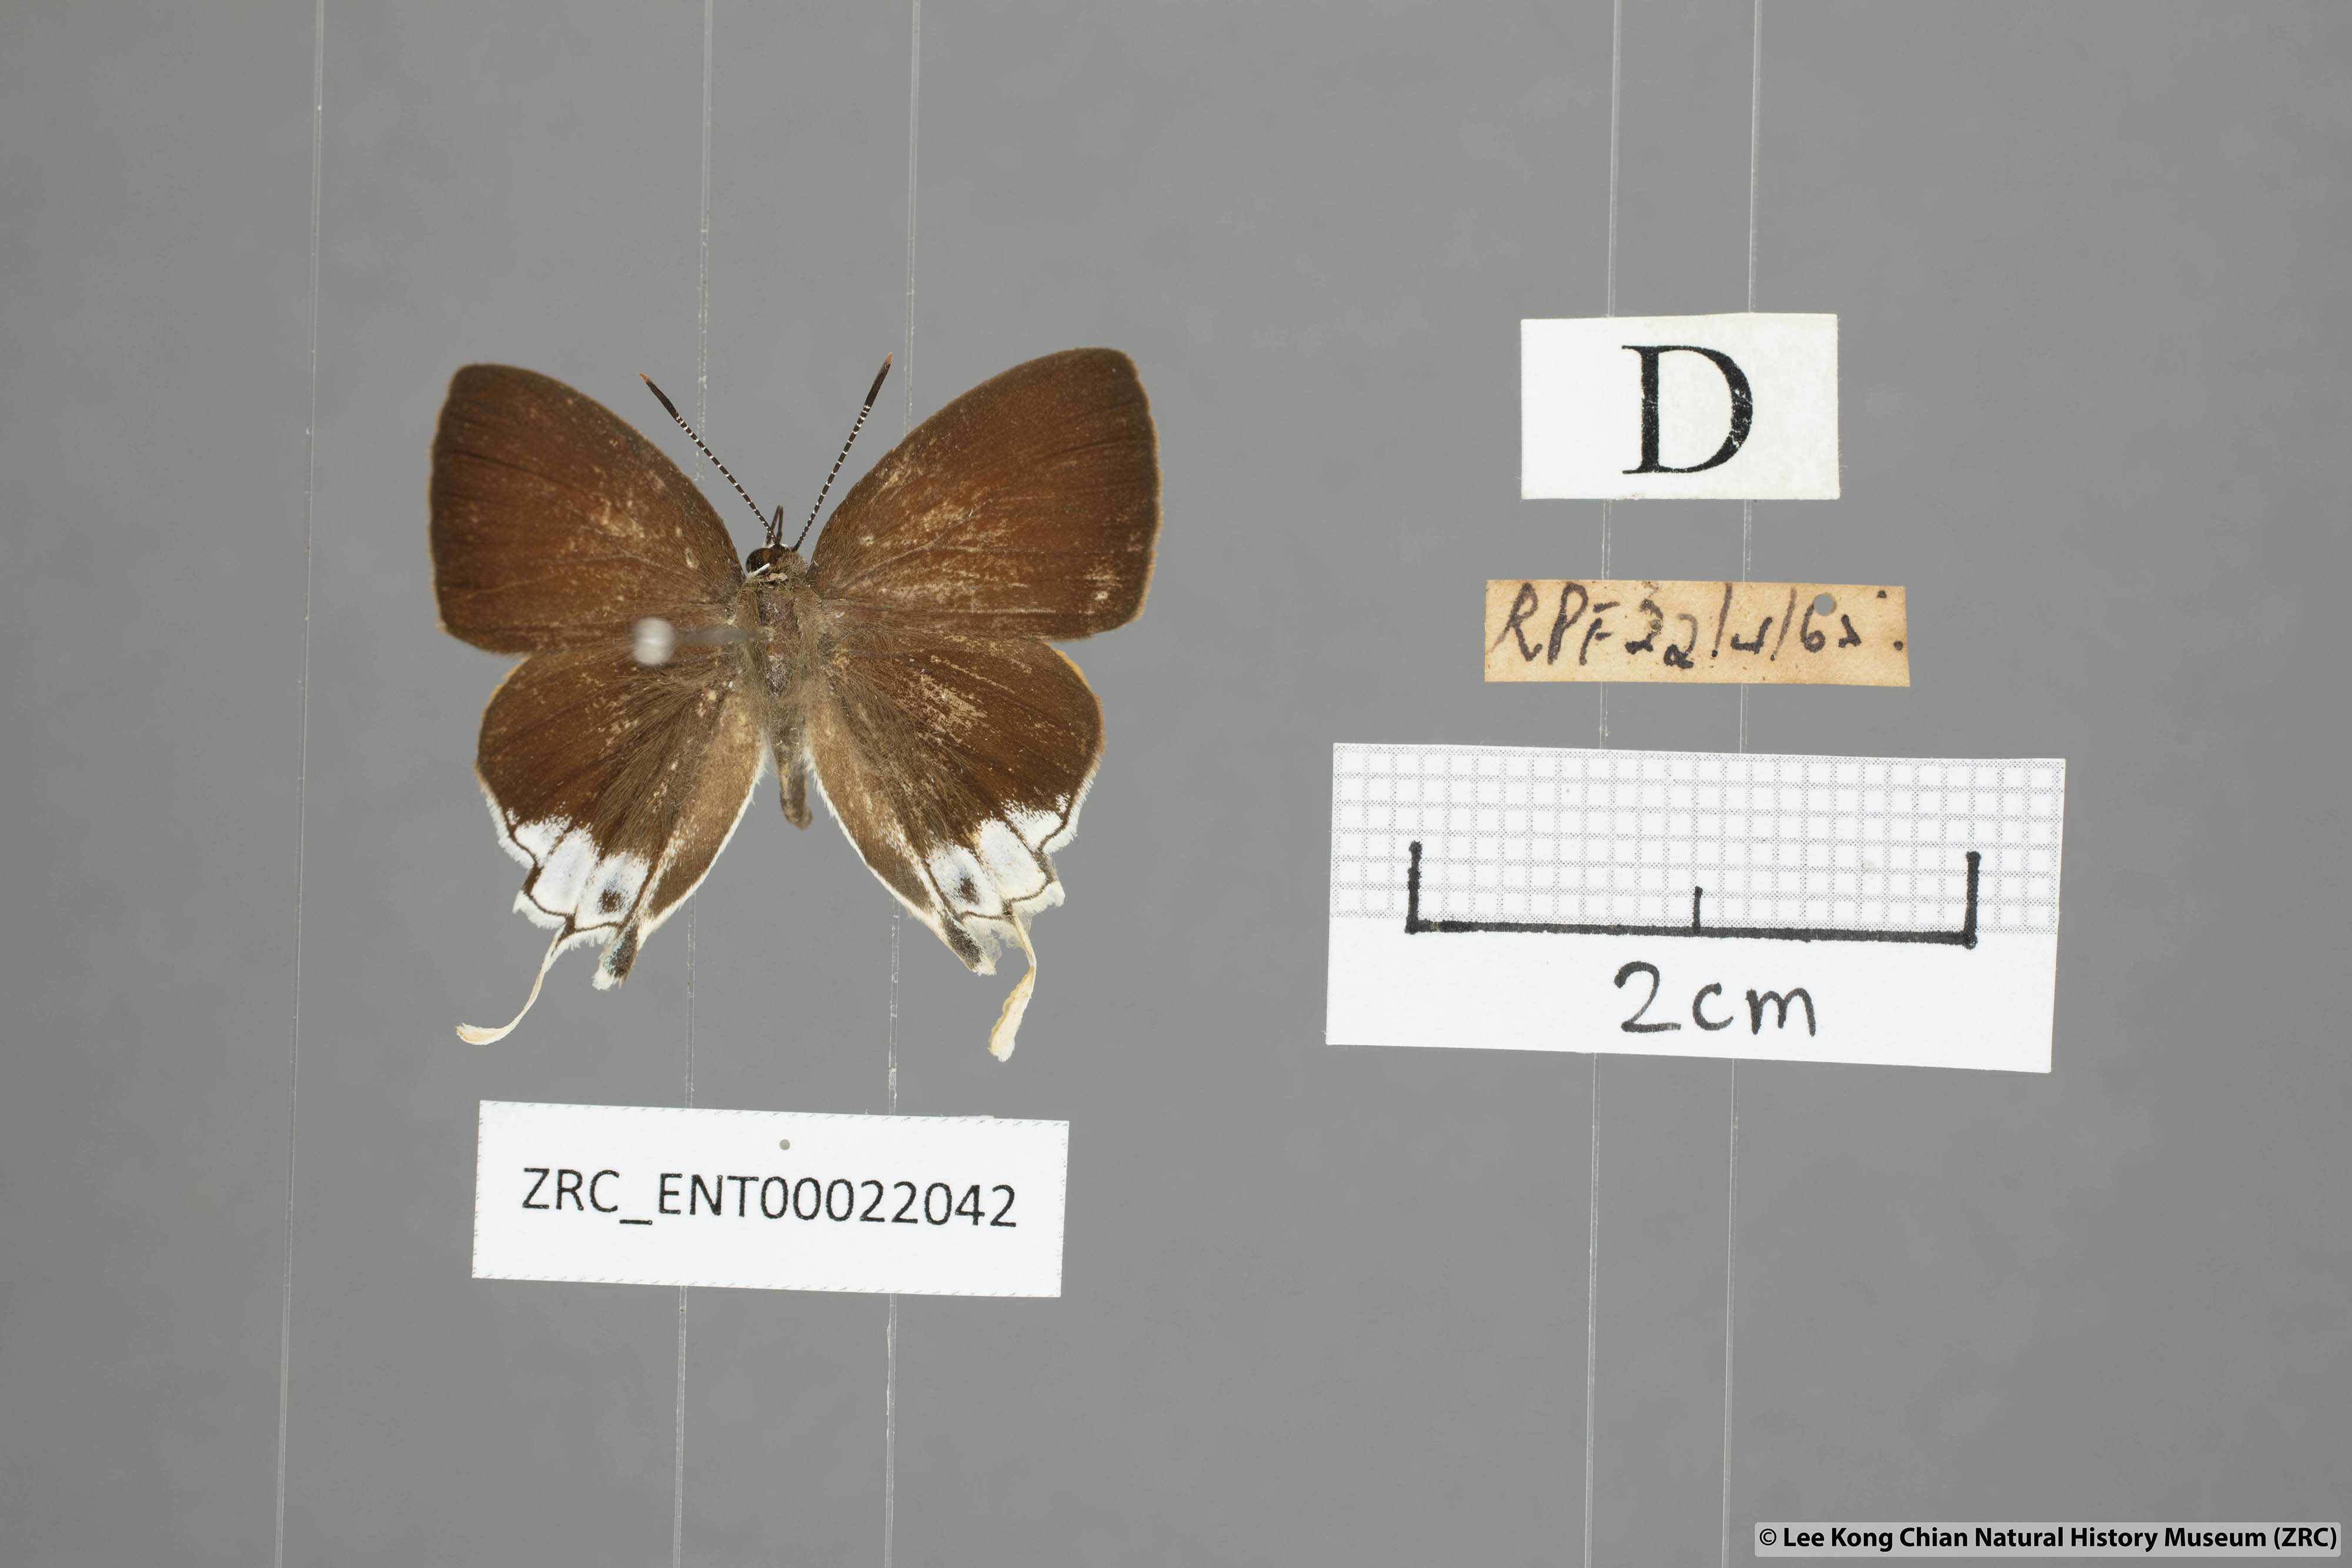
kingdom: Animalia
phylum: Arthropoda
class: Insecta
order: Lepidoptera
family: Lycaenidae
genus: Sithon
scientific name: Sithon nedymond
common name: Plush
